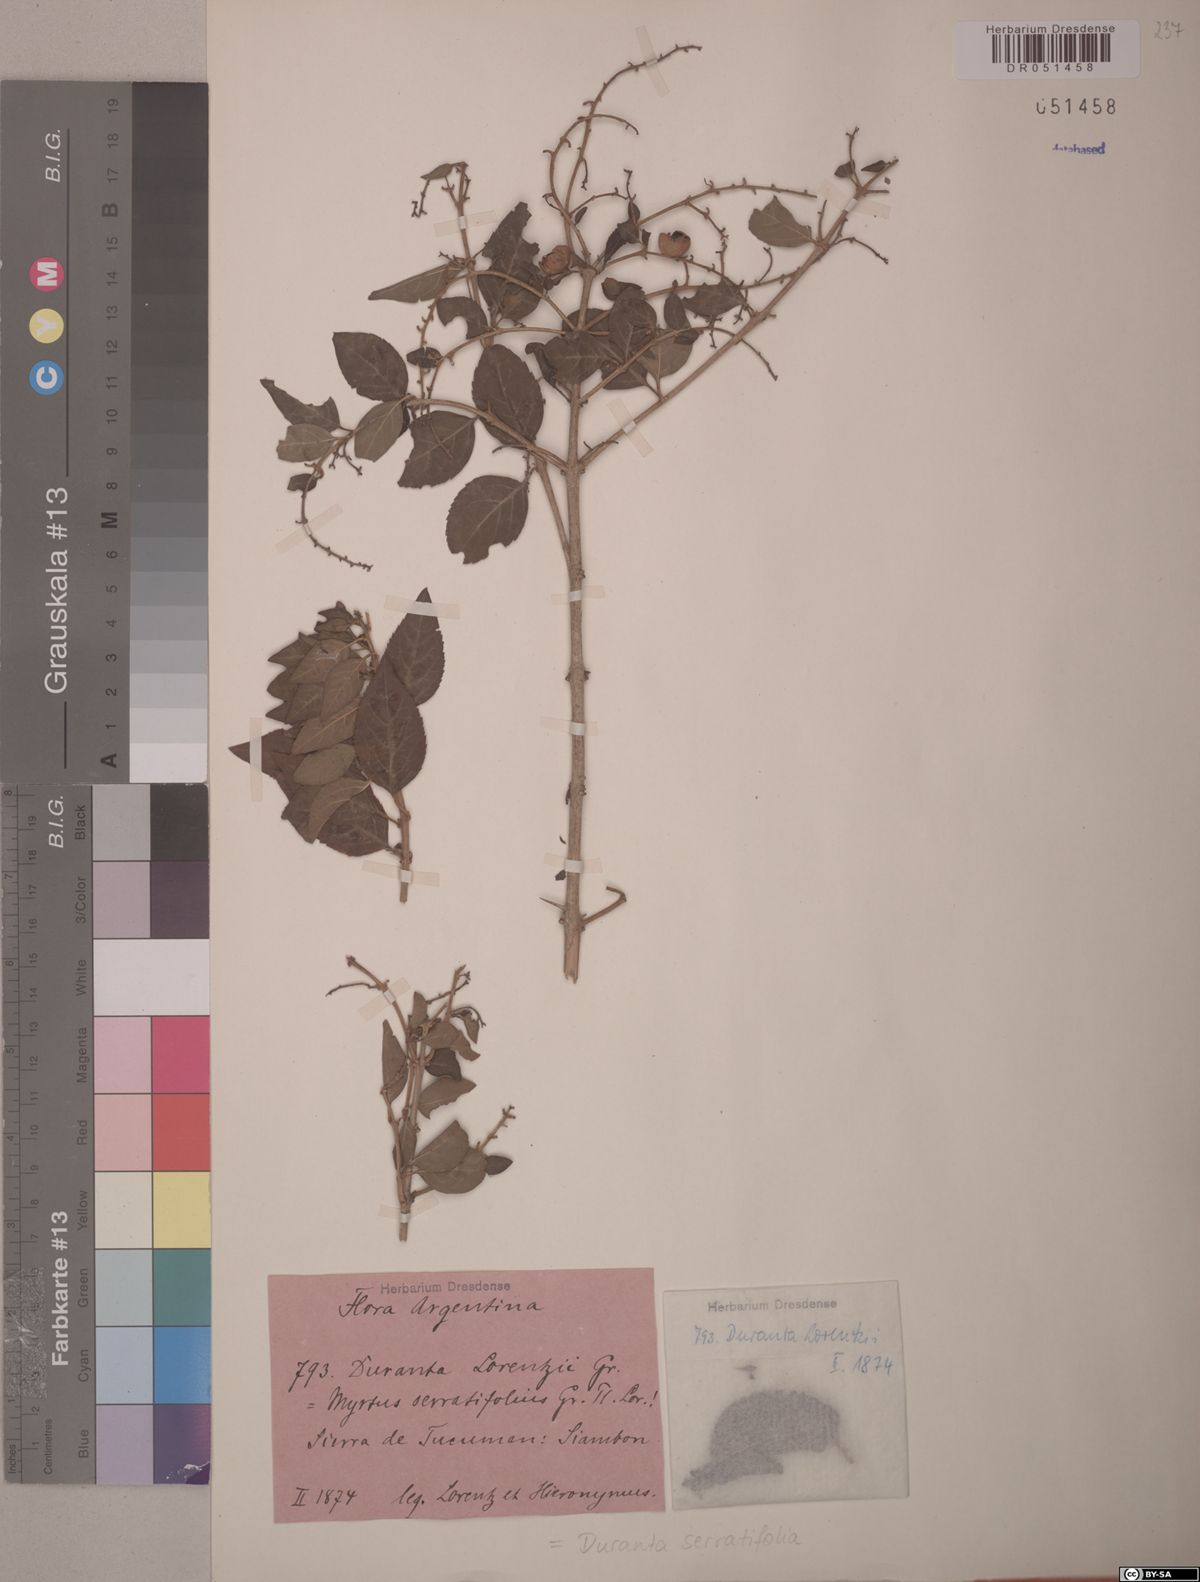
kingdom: Plantae
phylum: Tracheophyta
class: Magnoliopsida
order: Lamiales
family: Verbenaceae
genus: Duranta
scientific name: Duranta serratifolia
